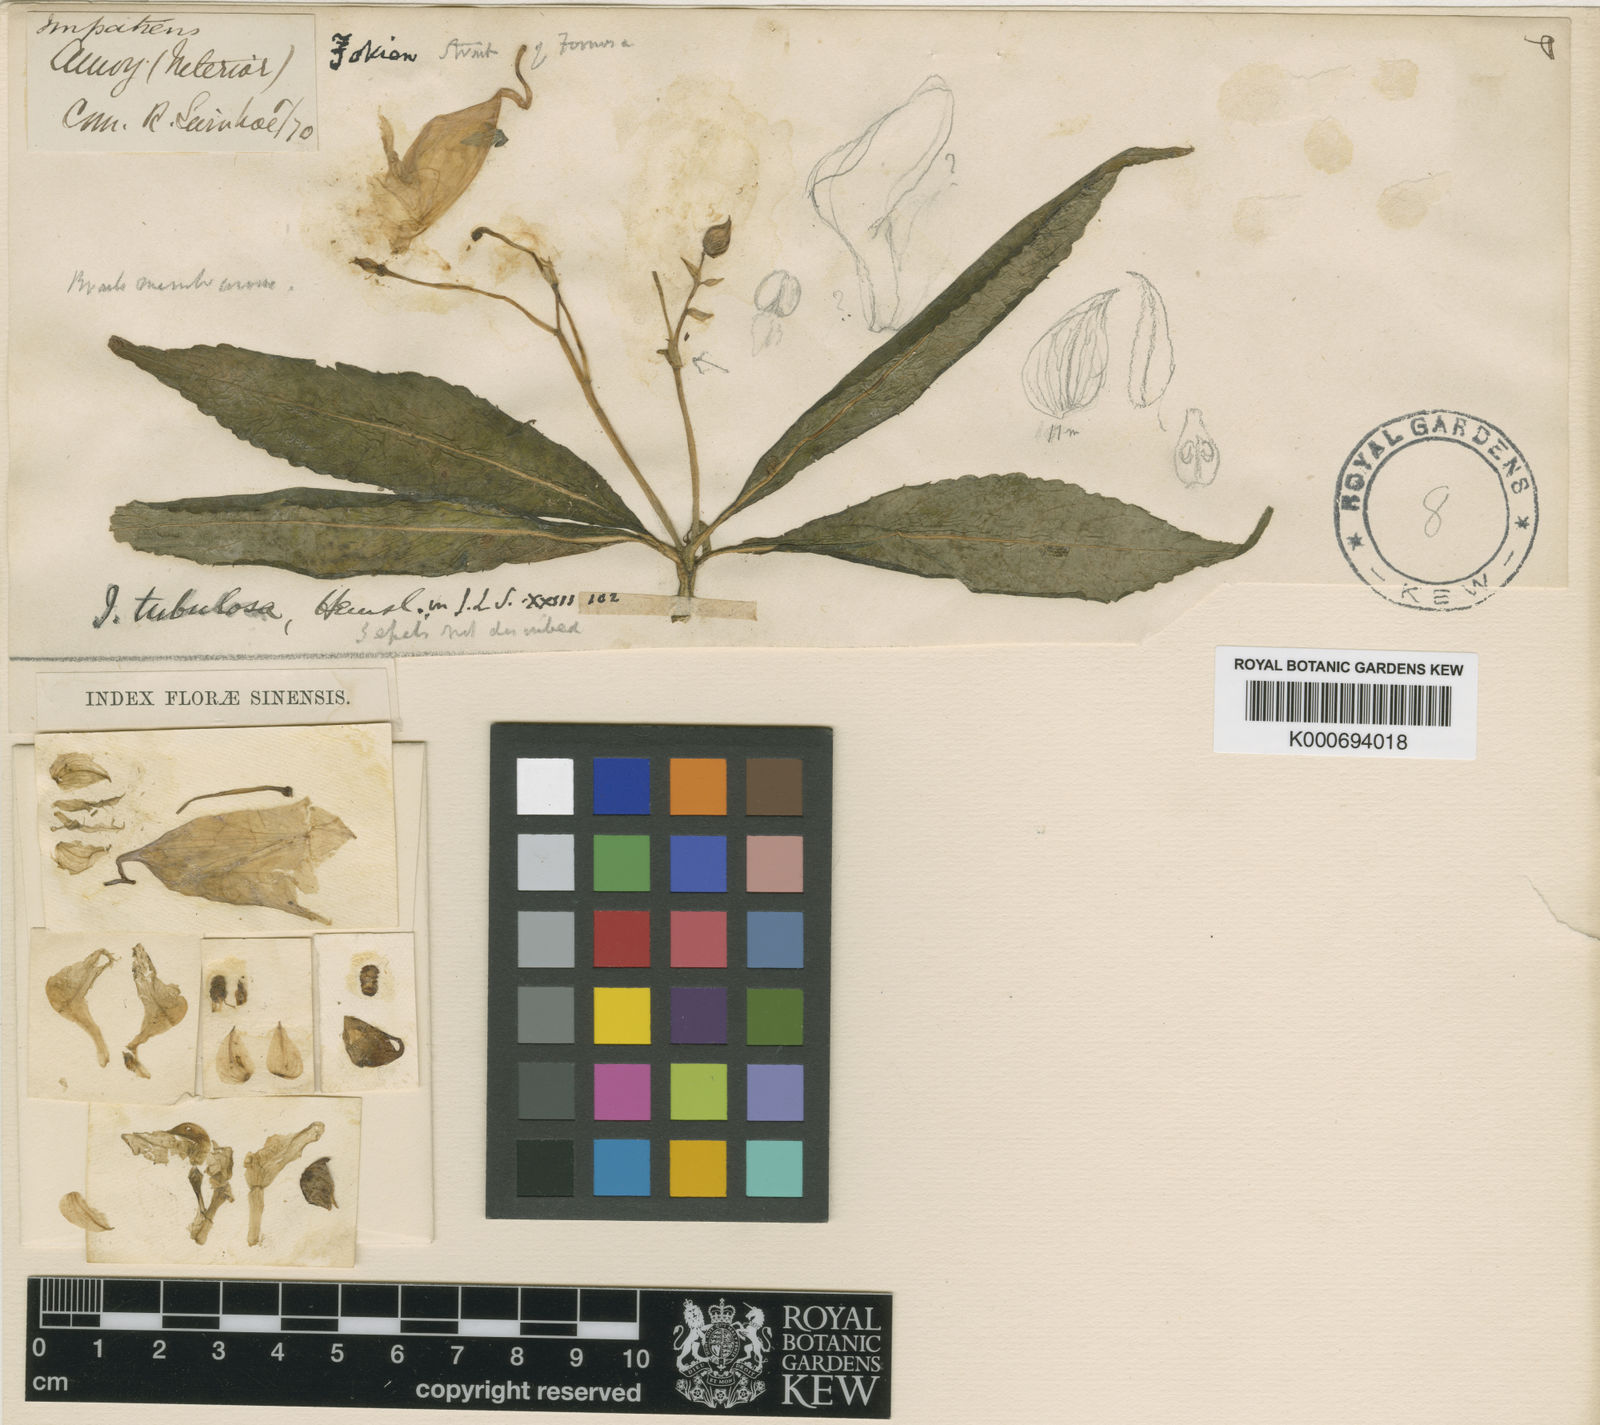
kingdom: Plantae
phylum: Tracheophyta
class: Magnoliopsida
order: Ericales
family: Balsaminaceae
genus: Impatiens
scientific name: Impatiens tubulosa
